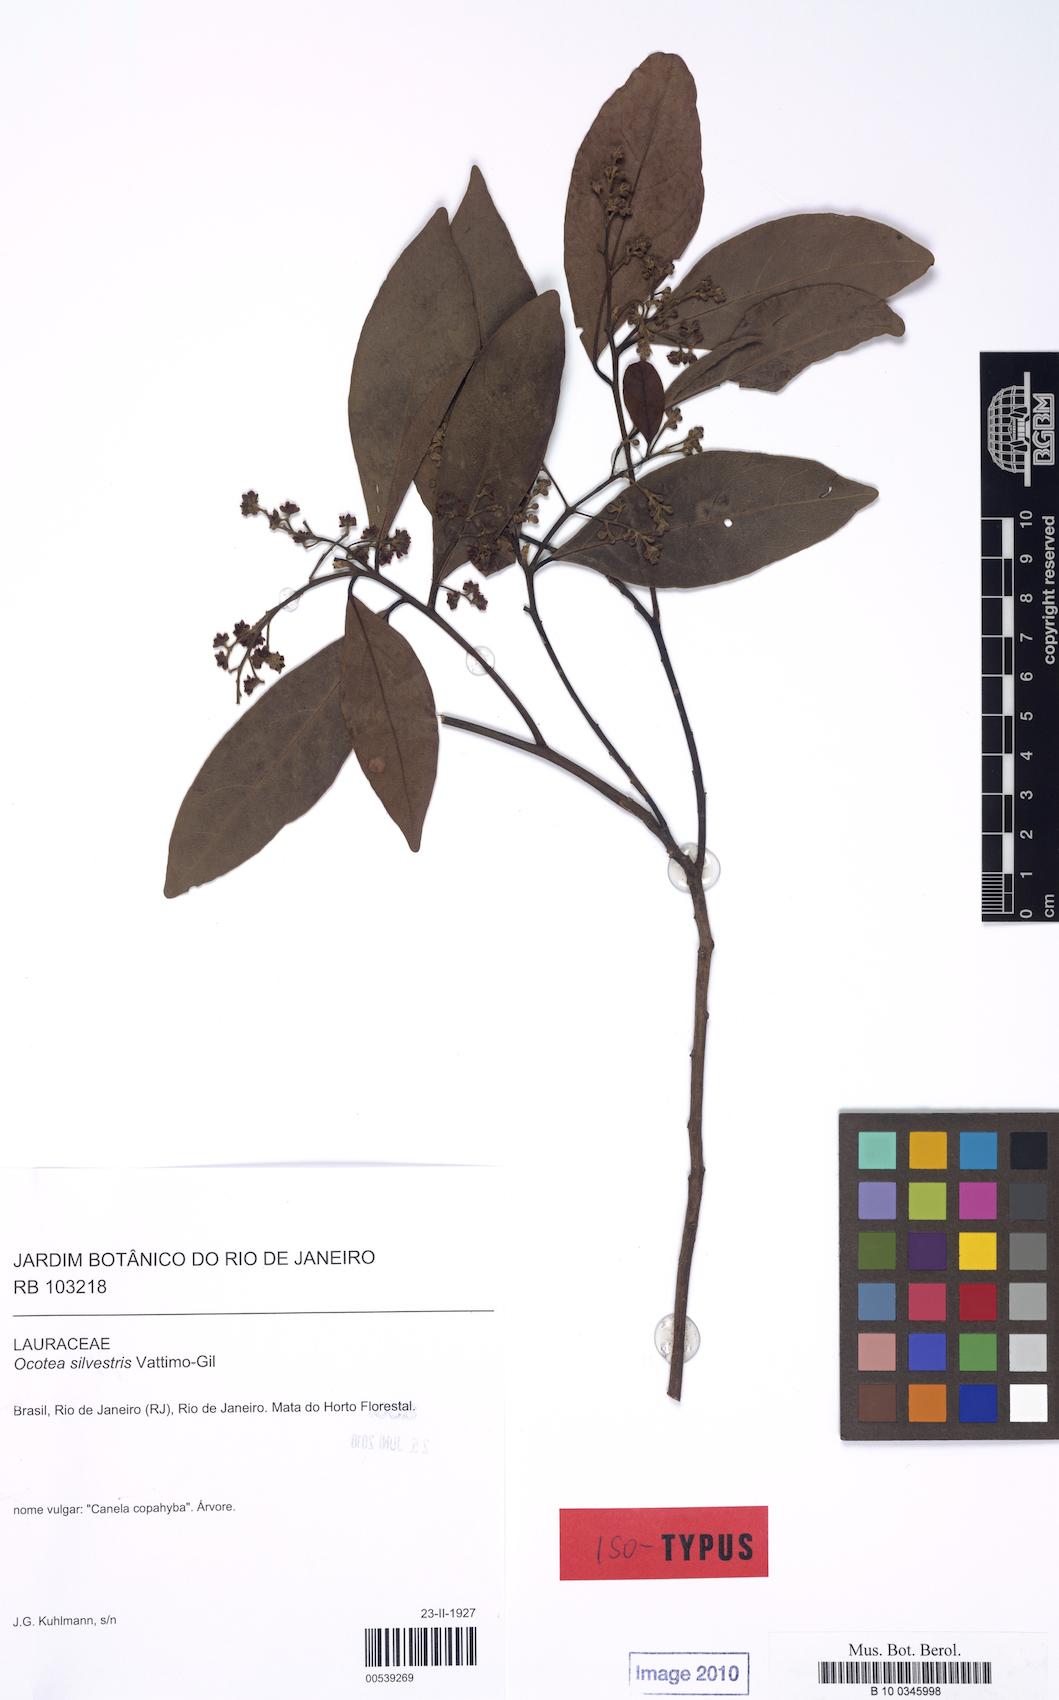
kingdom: Plantae
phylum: Tracheophyta
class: Magnoliopsida
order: Laurales
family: Lauraceae
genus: Ocotea
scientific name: Ocotea silvestris
